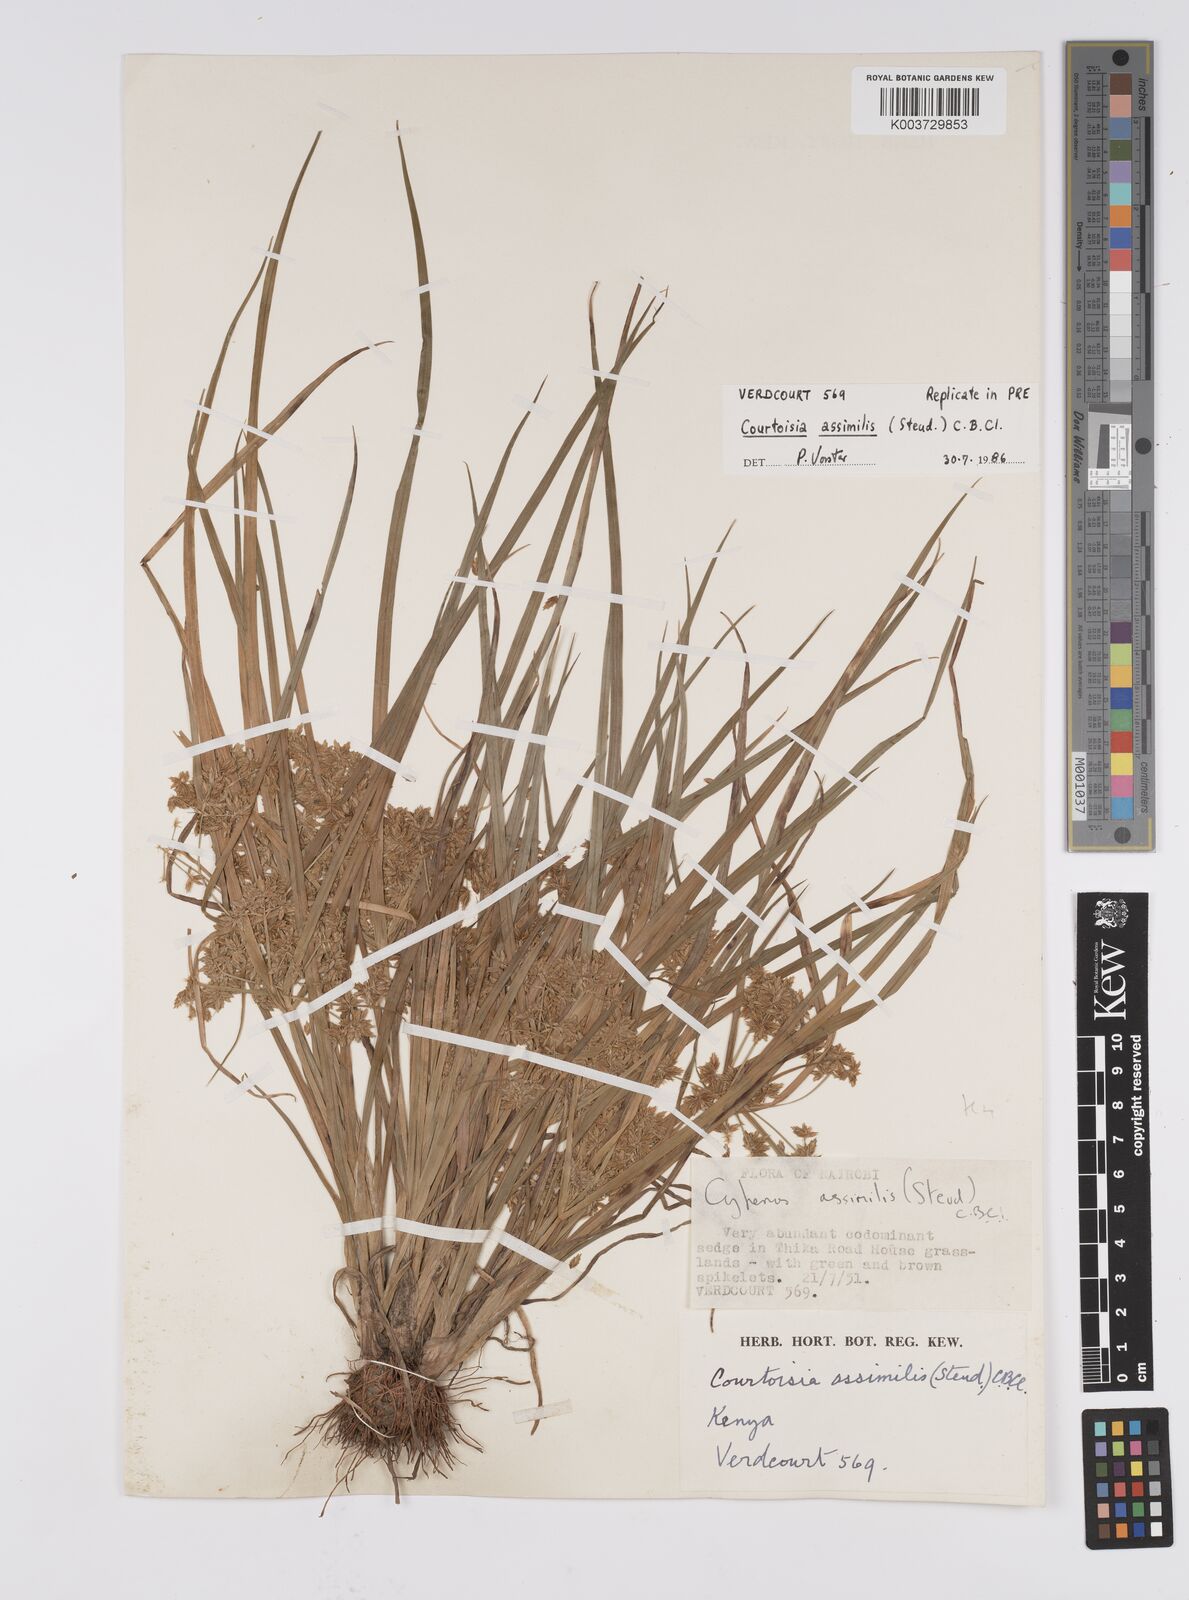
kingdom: Plantae
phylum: Tracheophyta
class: Liliopsida
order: Poales
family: Cyperaceae
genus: Cyperus
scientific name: Cyperus assimilis
